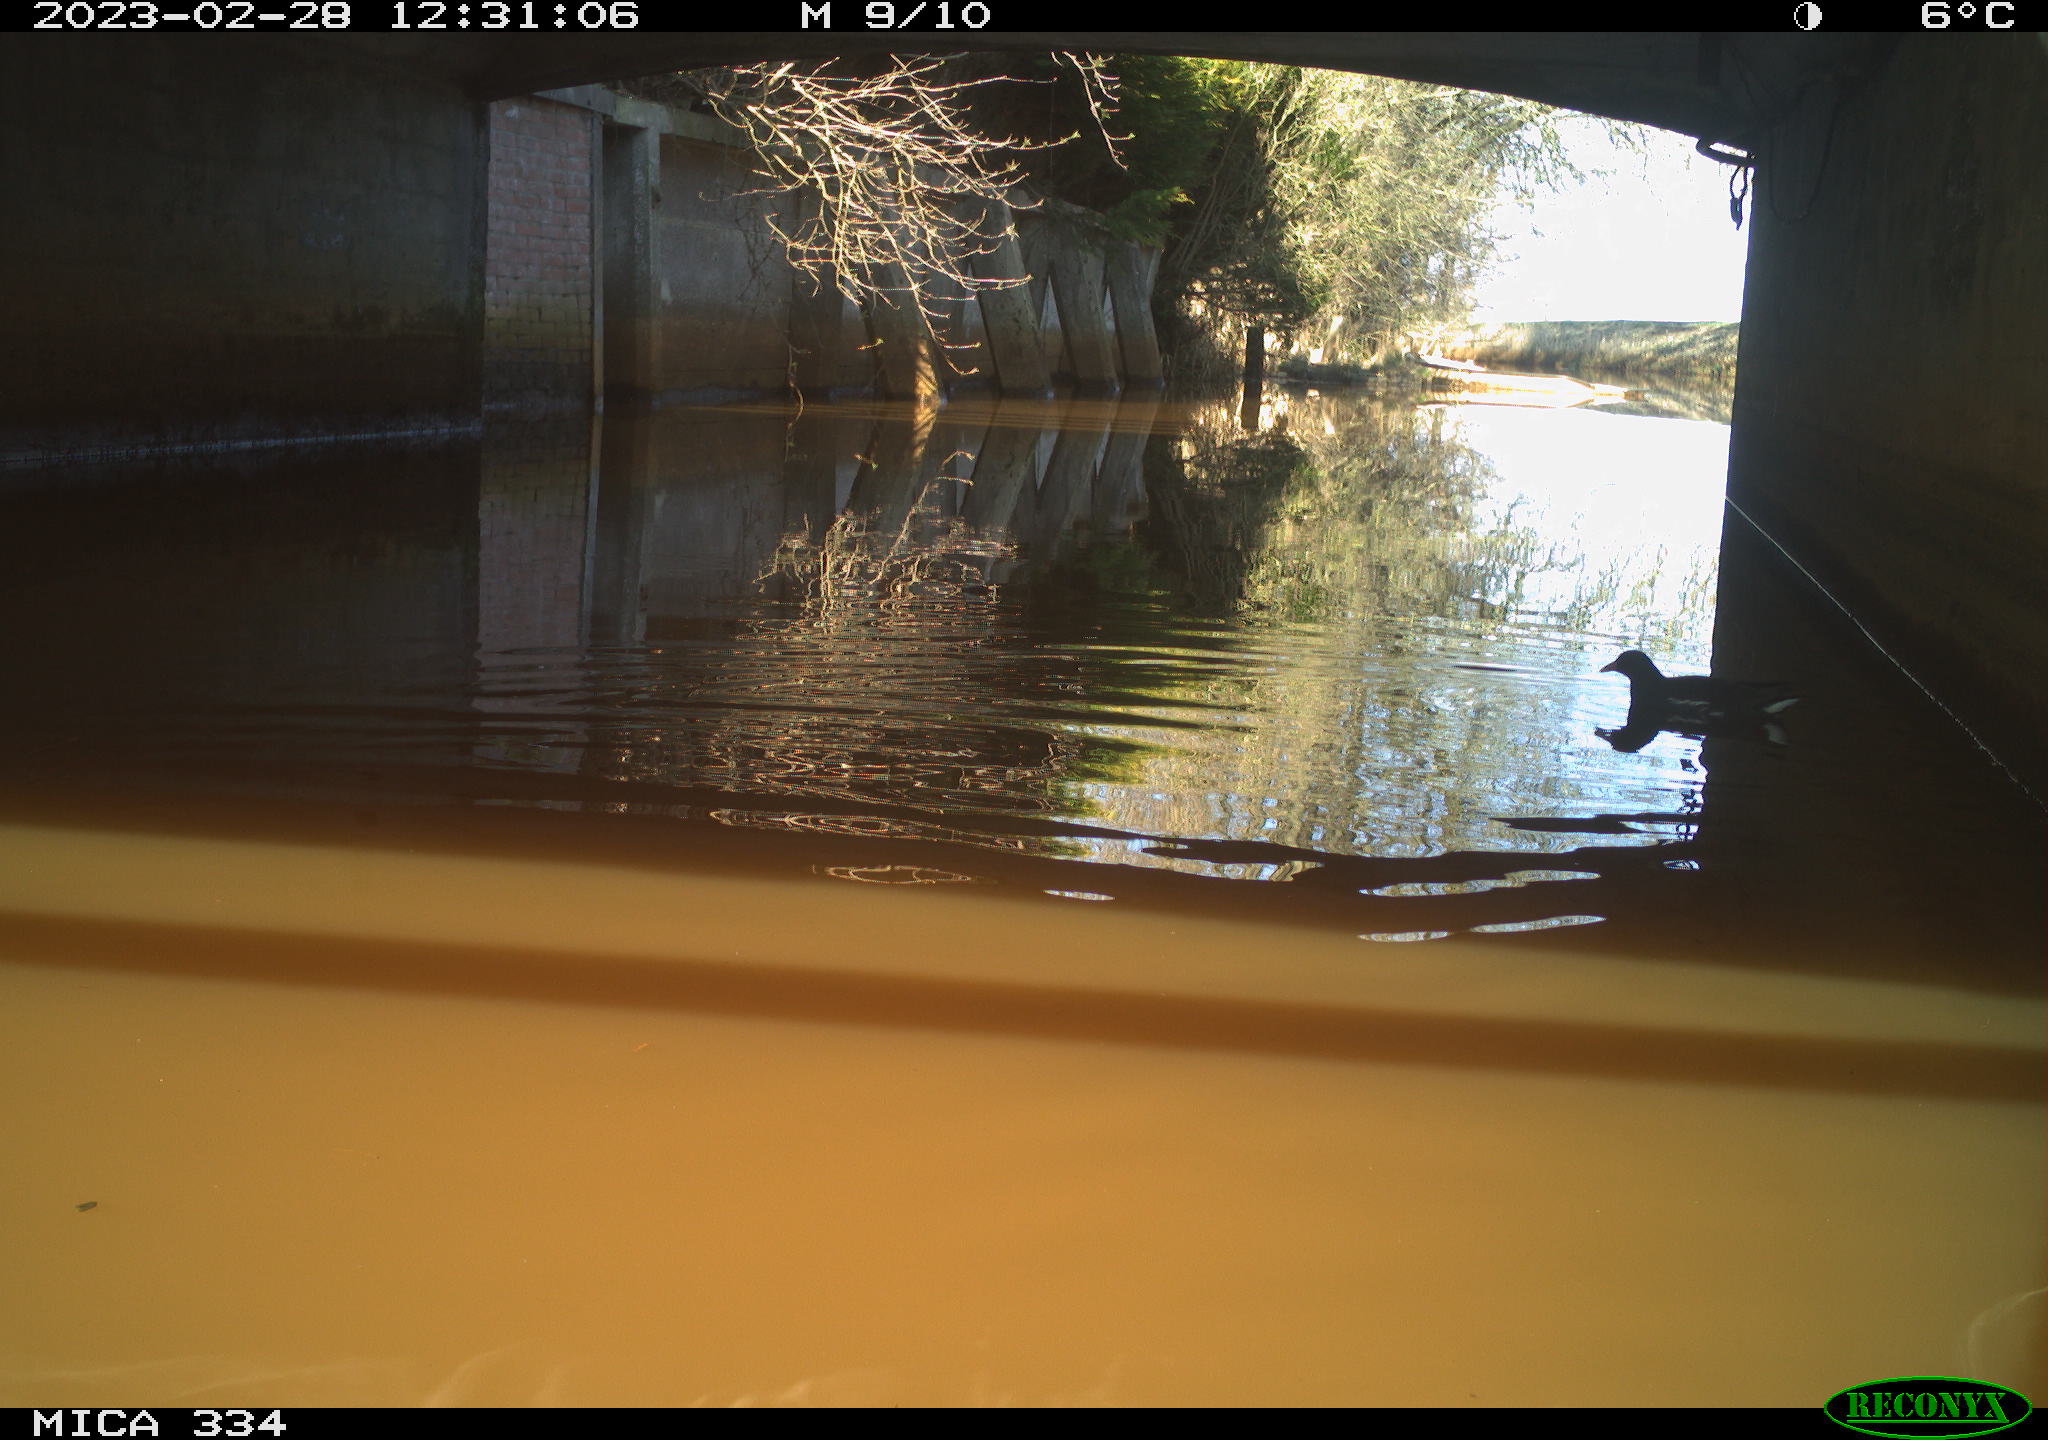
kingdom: Animalia
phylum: Chordata
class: Aves
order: Gruiformes
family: Rallidae
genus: Gallinula
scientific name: Gallinula chloropus
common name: Common moorhen
